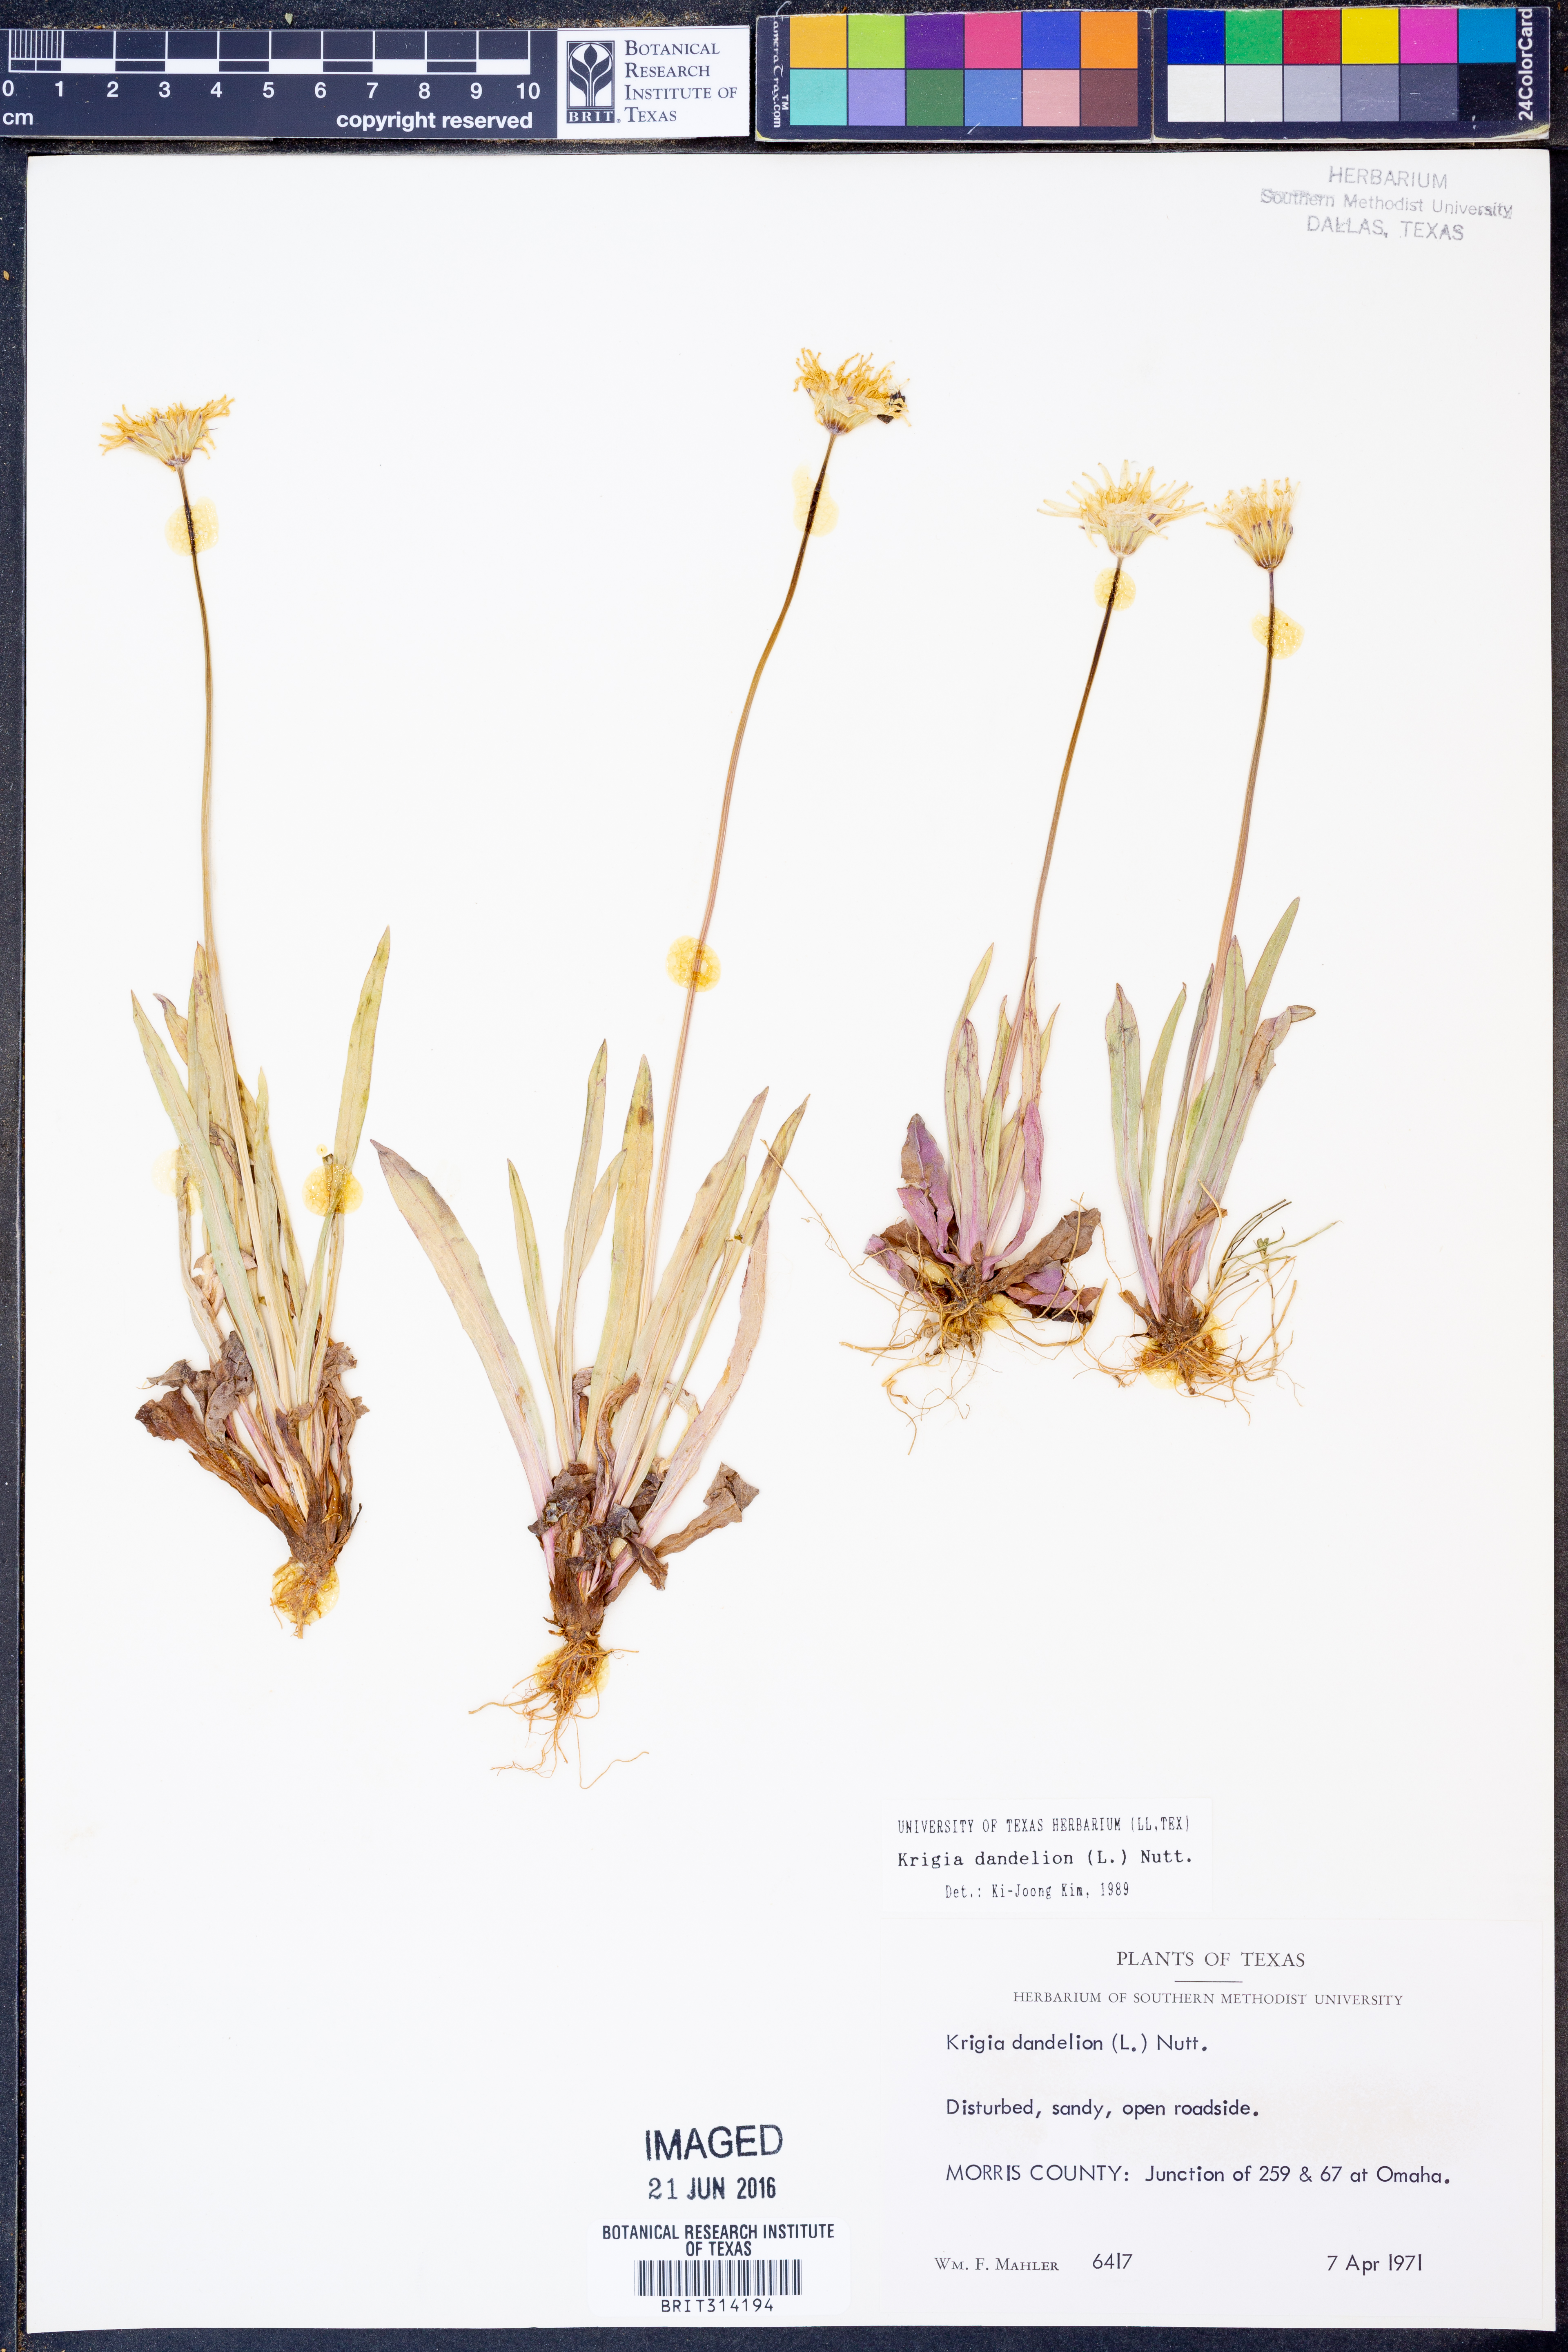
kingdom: Plantae
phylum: Tracheophyta
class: Magnoliopsida
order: Asterales
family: Asteraceae
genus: Krigia
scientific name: Krigia dandelion
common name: Colonial dwarf-dandelion
